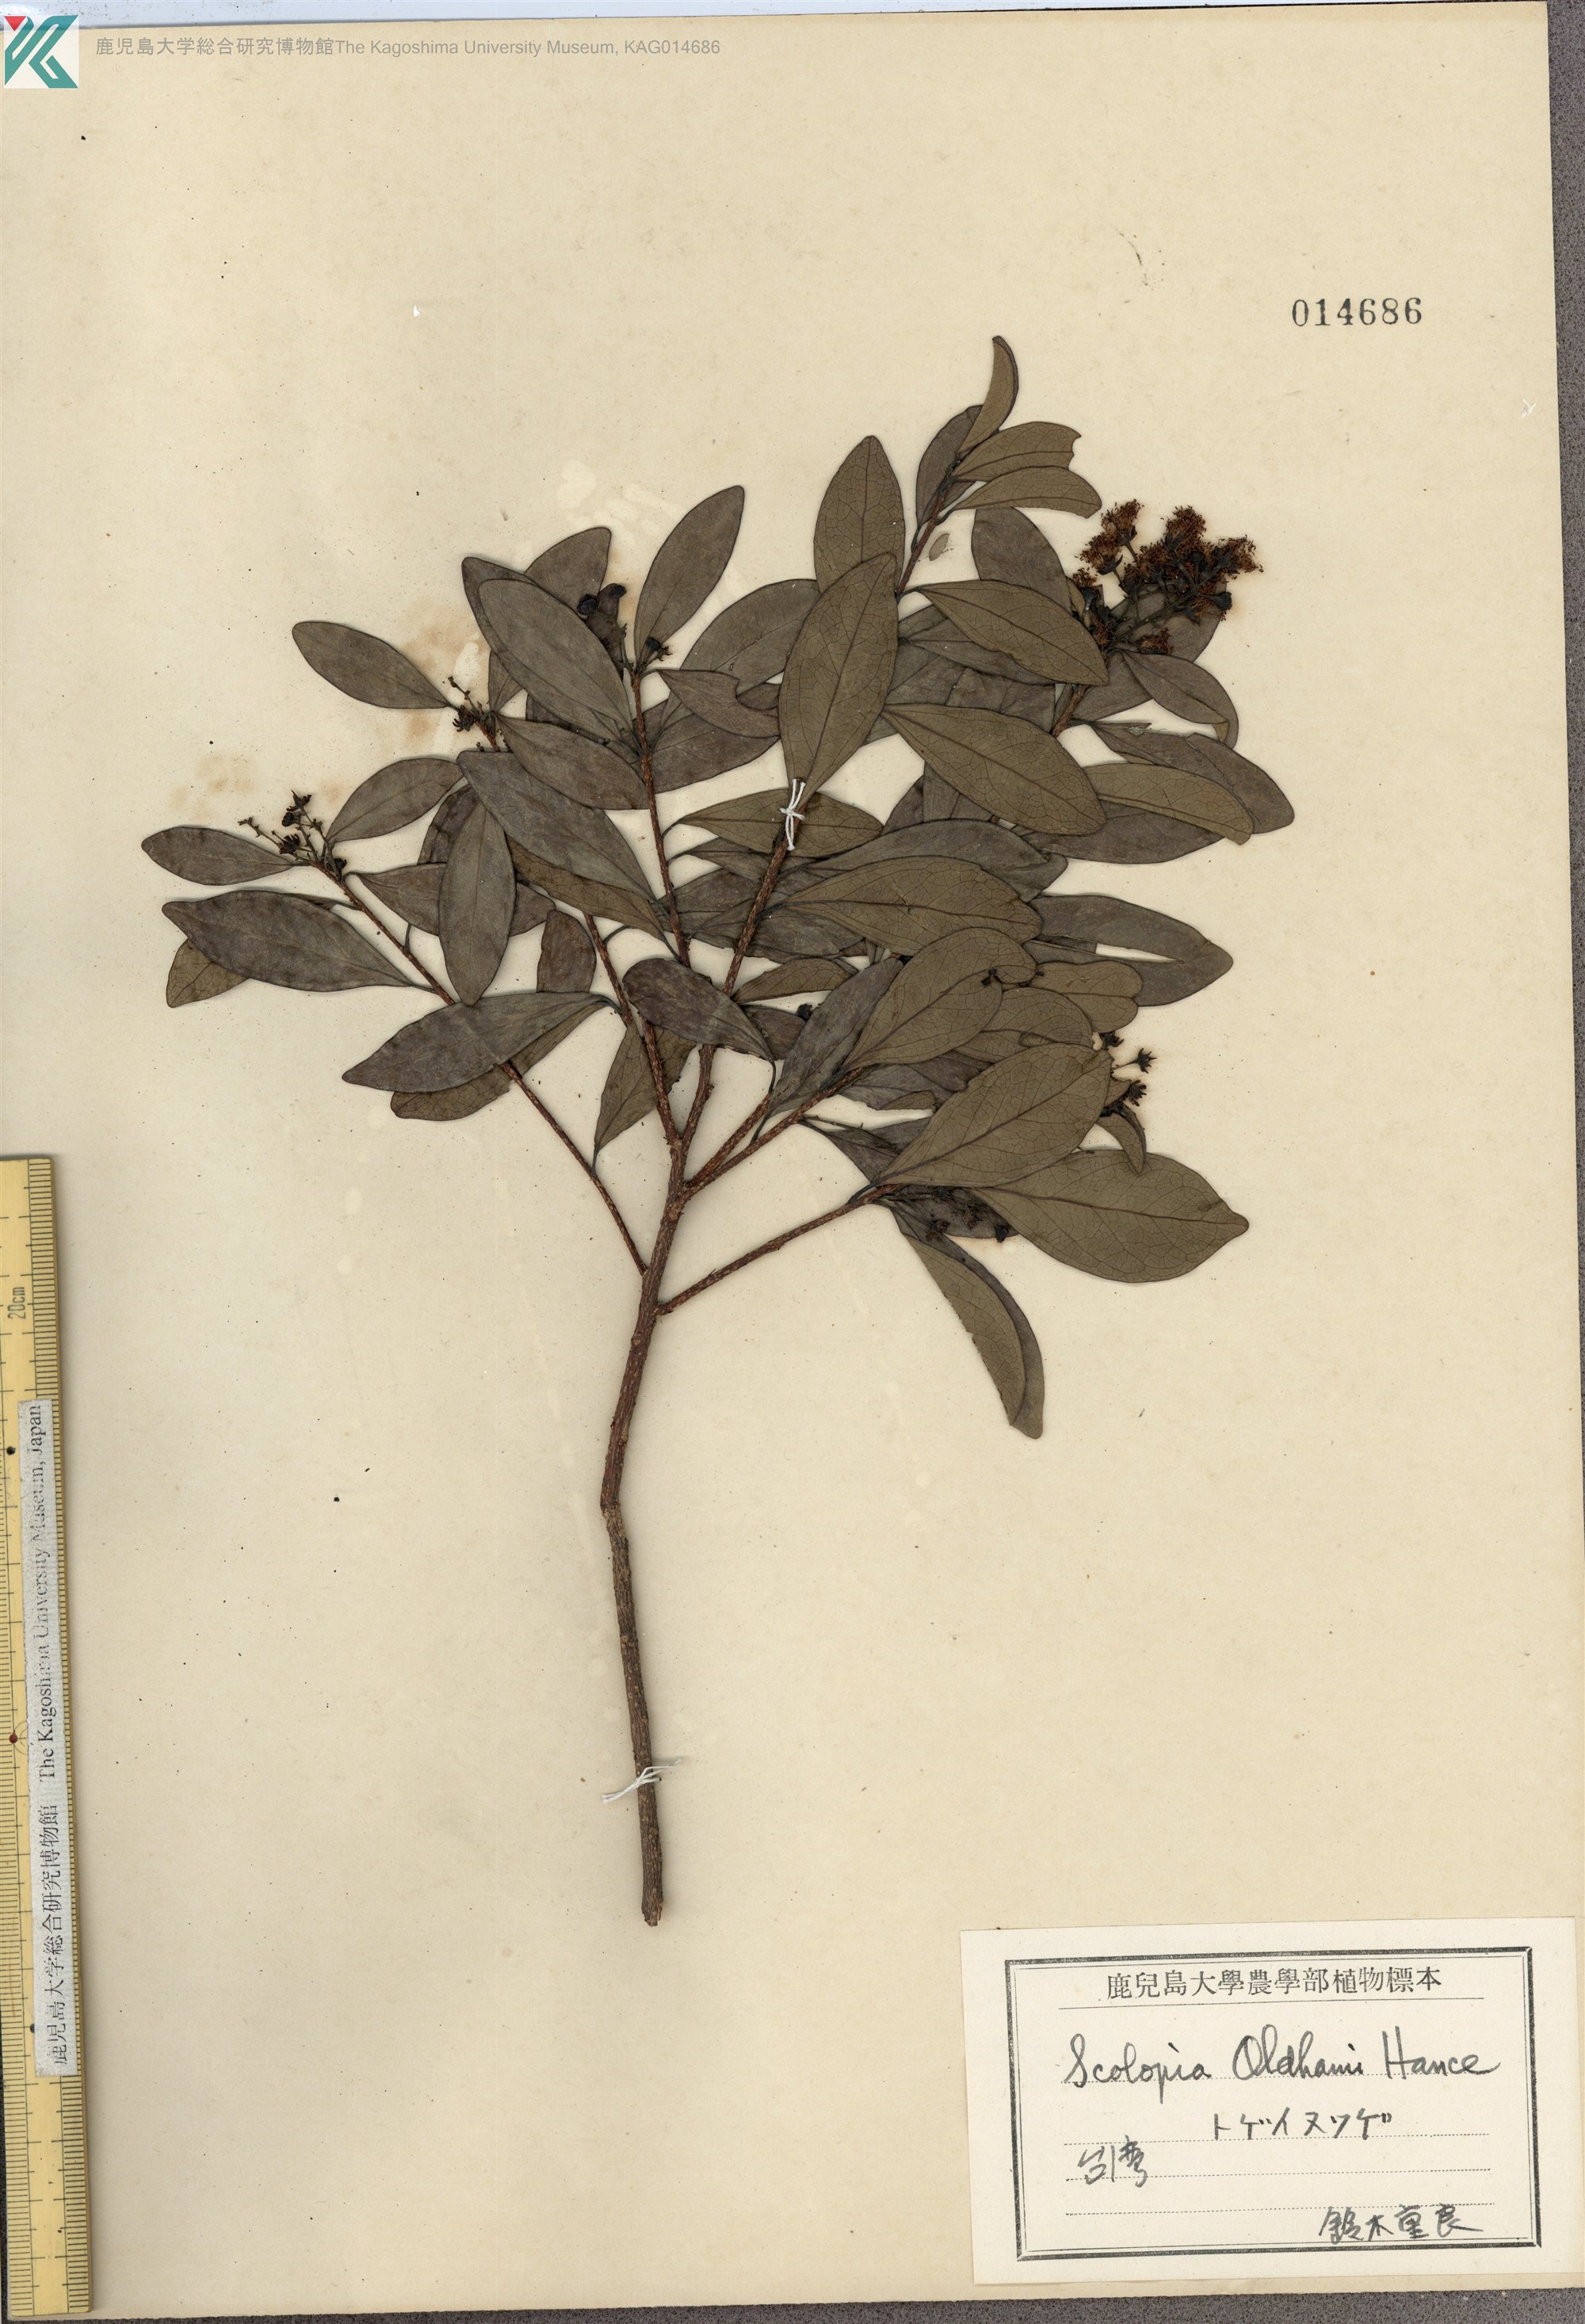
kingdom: Plantae
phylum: Tracheophyta
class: Magnoliopsida
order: Malpighiales
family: Salicaceae
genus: Scolopia
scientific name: Scolopia oldhamii
